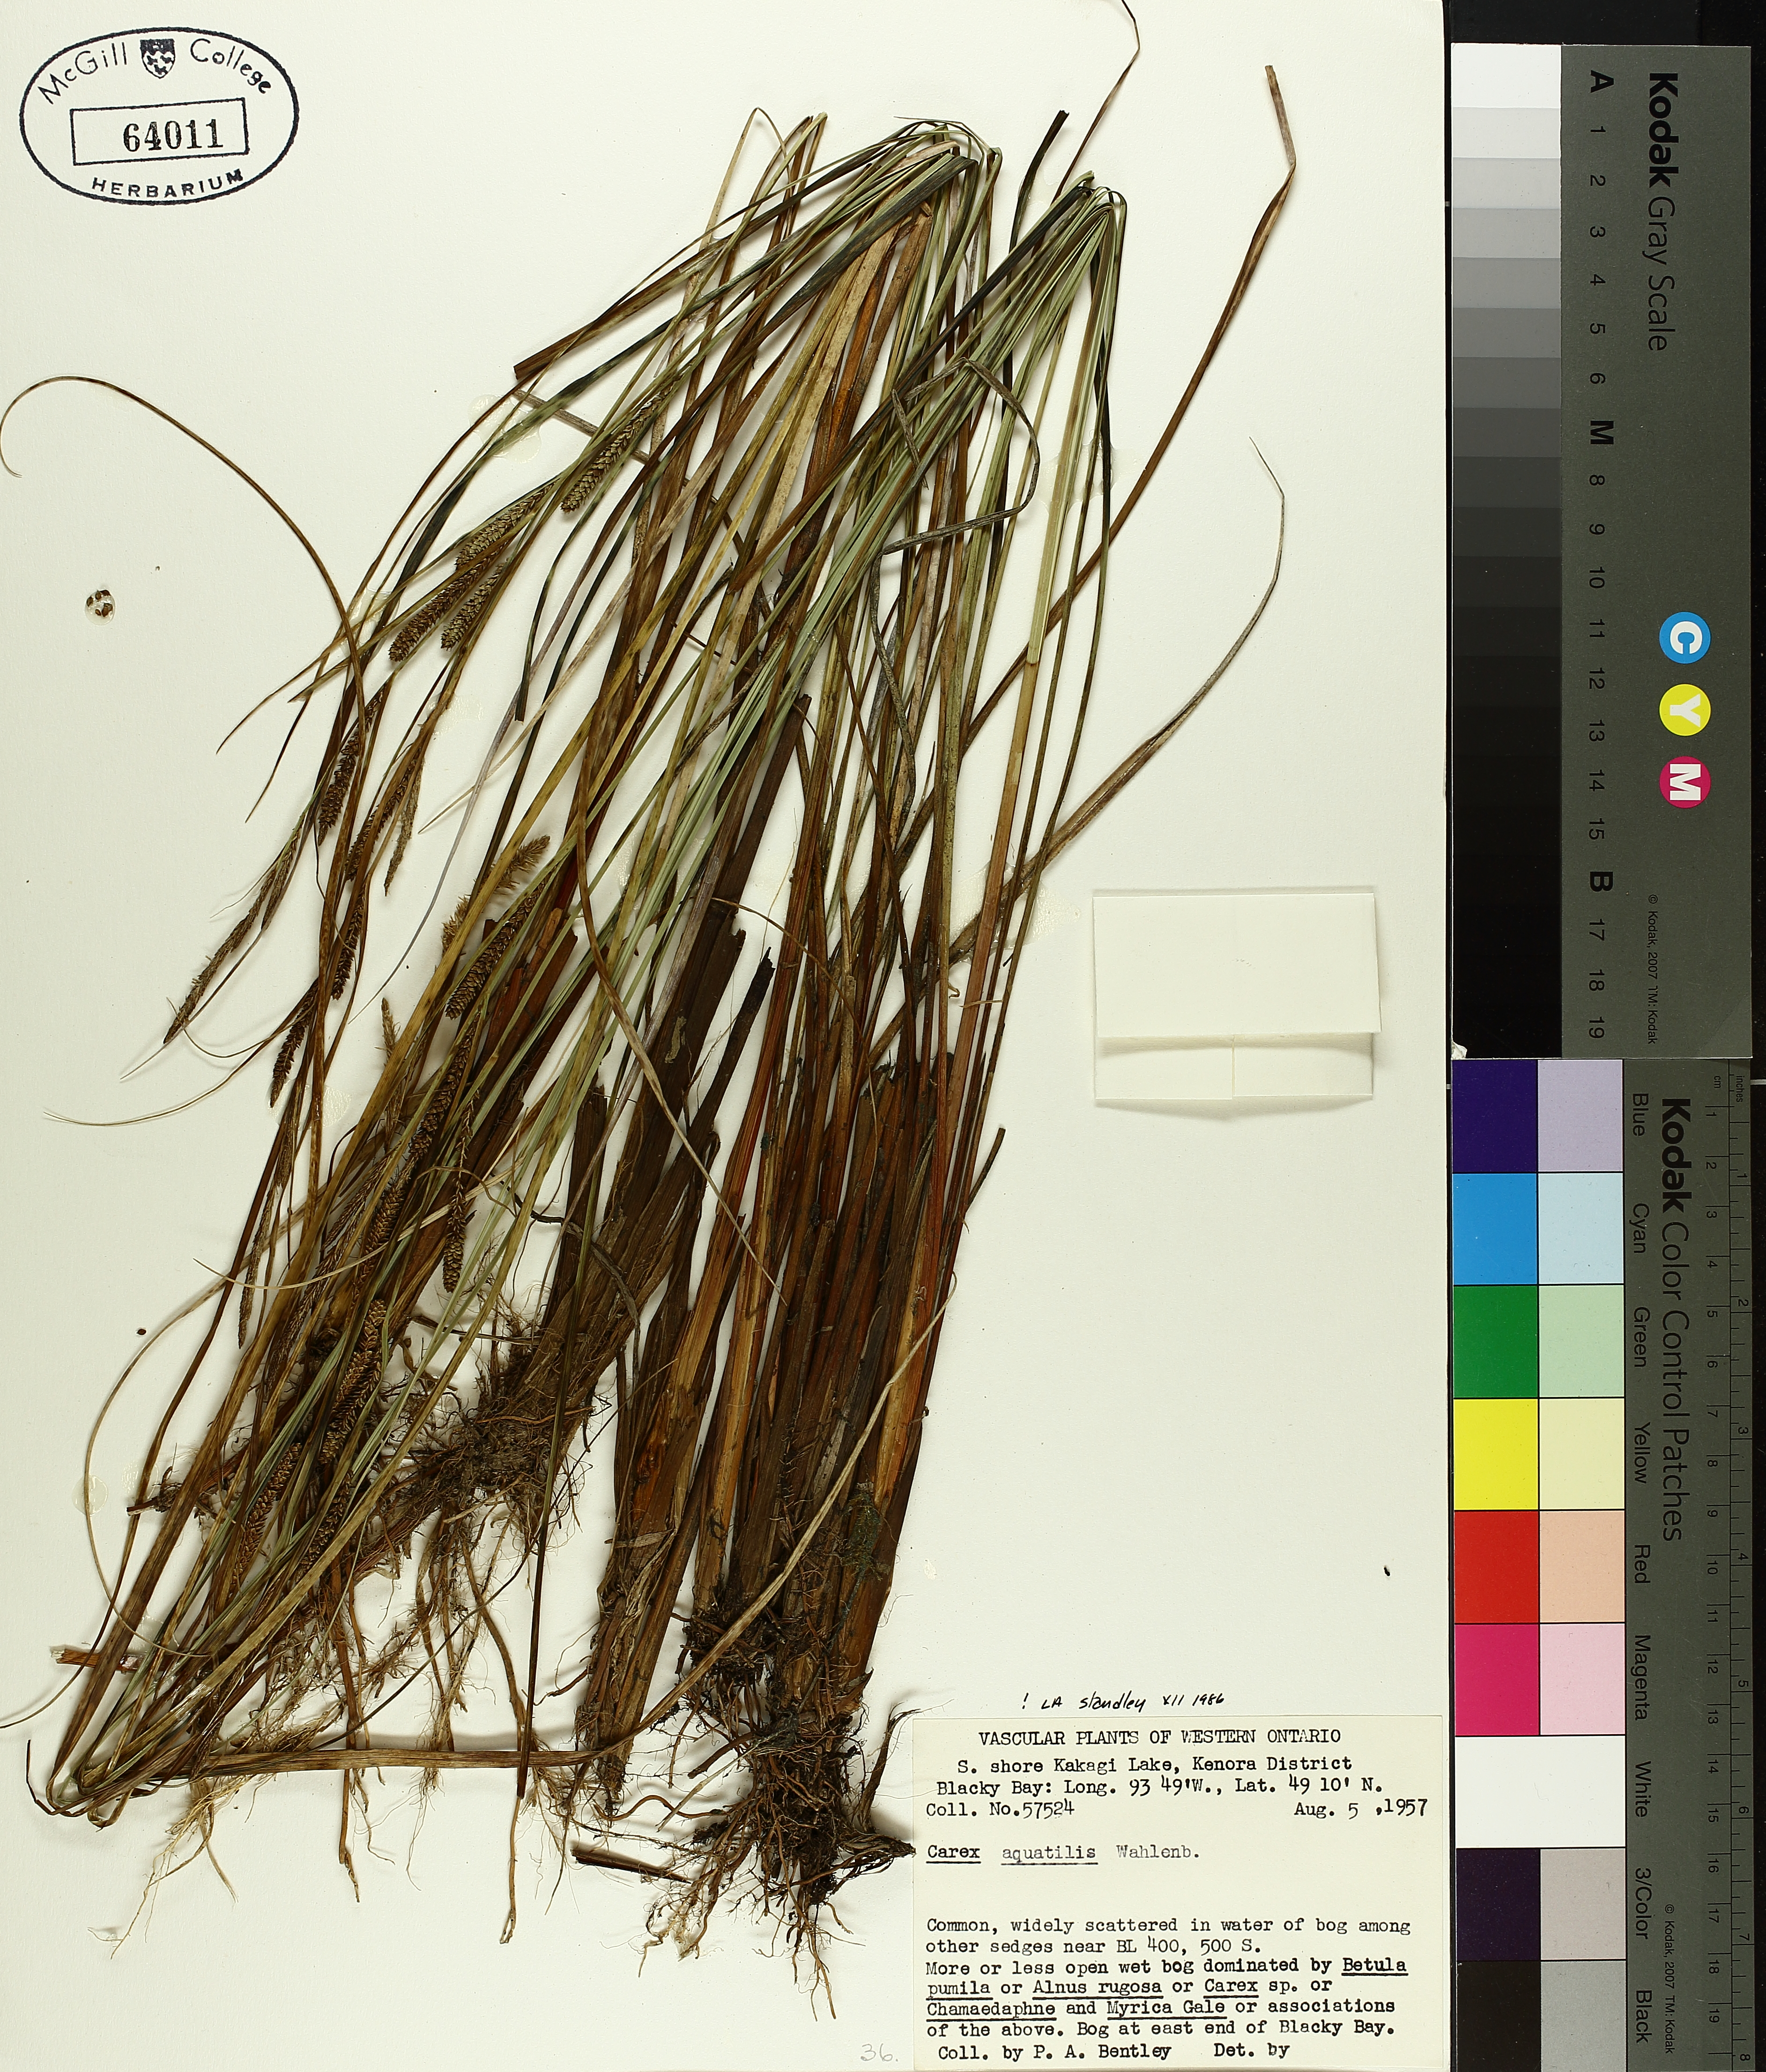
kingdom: Plantae
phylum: Tracheophyta
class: Liliopsida
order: Poales
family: Cyperaceae
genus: Carex
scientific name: Carex aquatilis
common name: Water sedge
